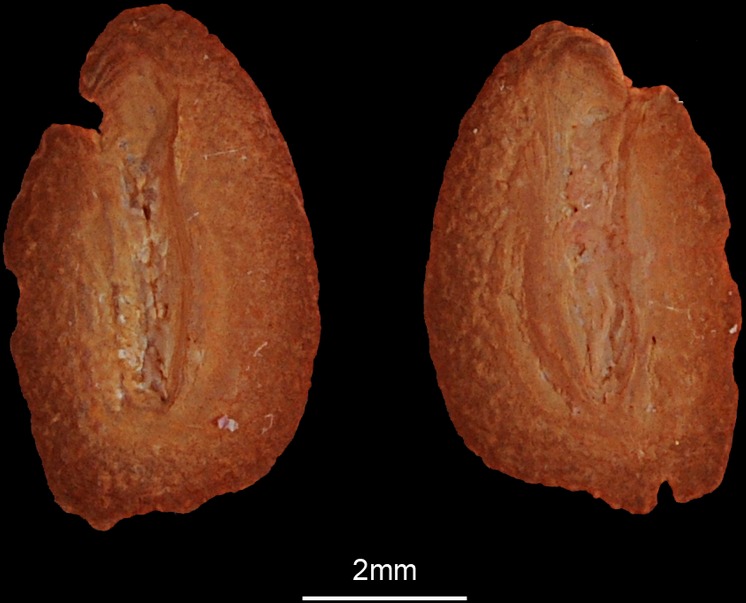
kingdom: Animalia
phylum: Chordata
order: Pleuronectiformes
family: Paralichthyidae
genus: Pseudorhombus
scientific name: Pseudorhombus arsius
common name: Largetooth flounder
